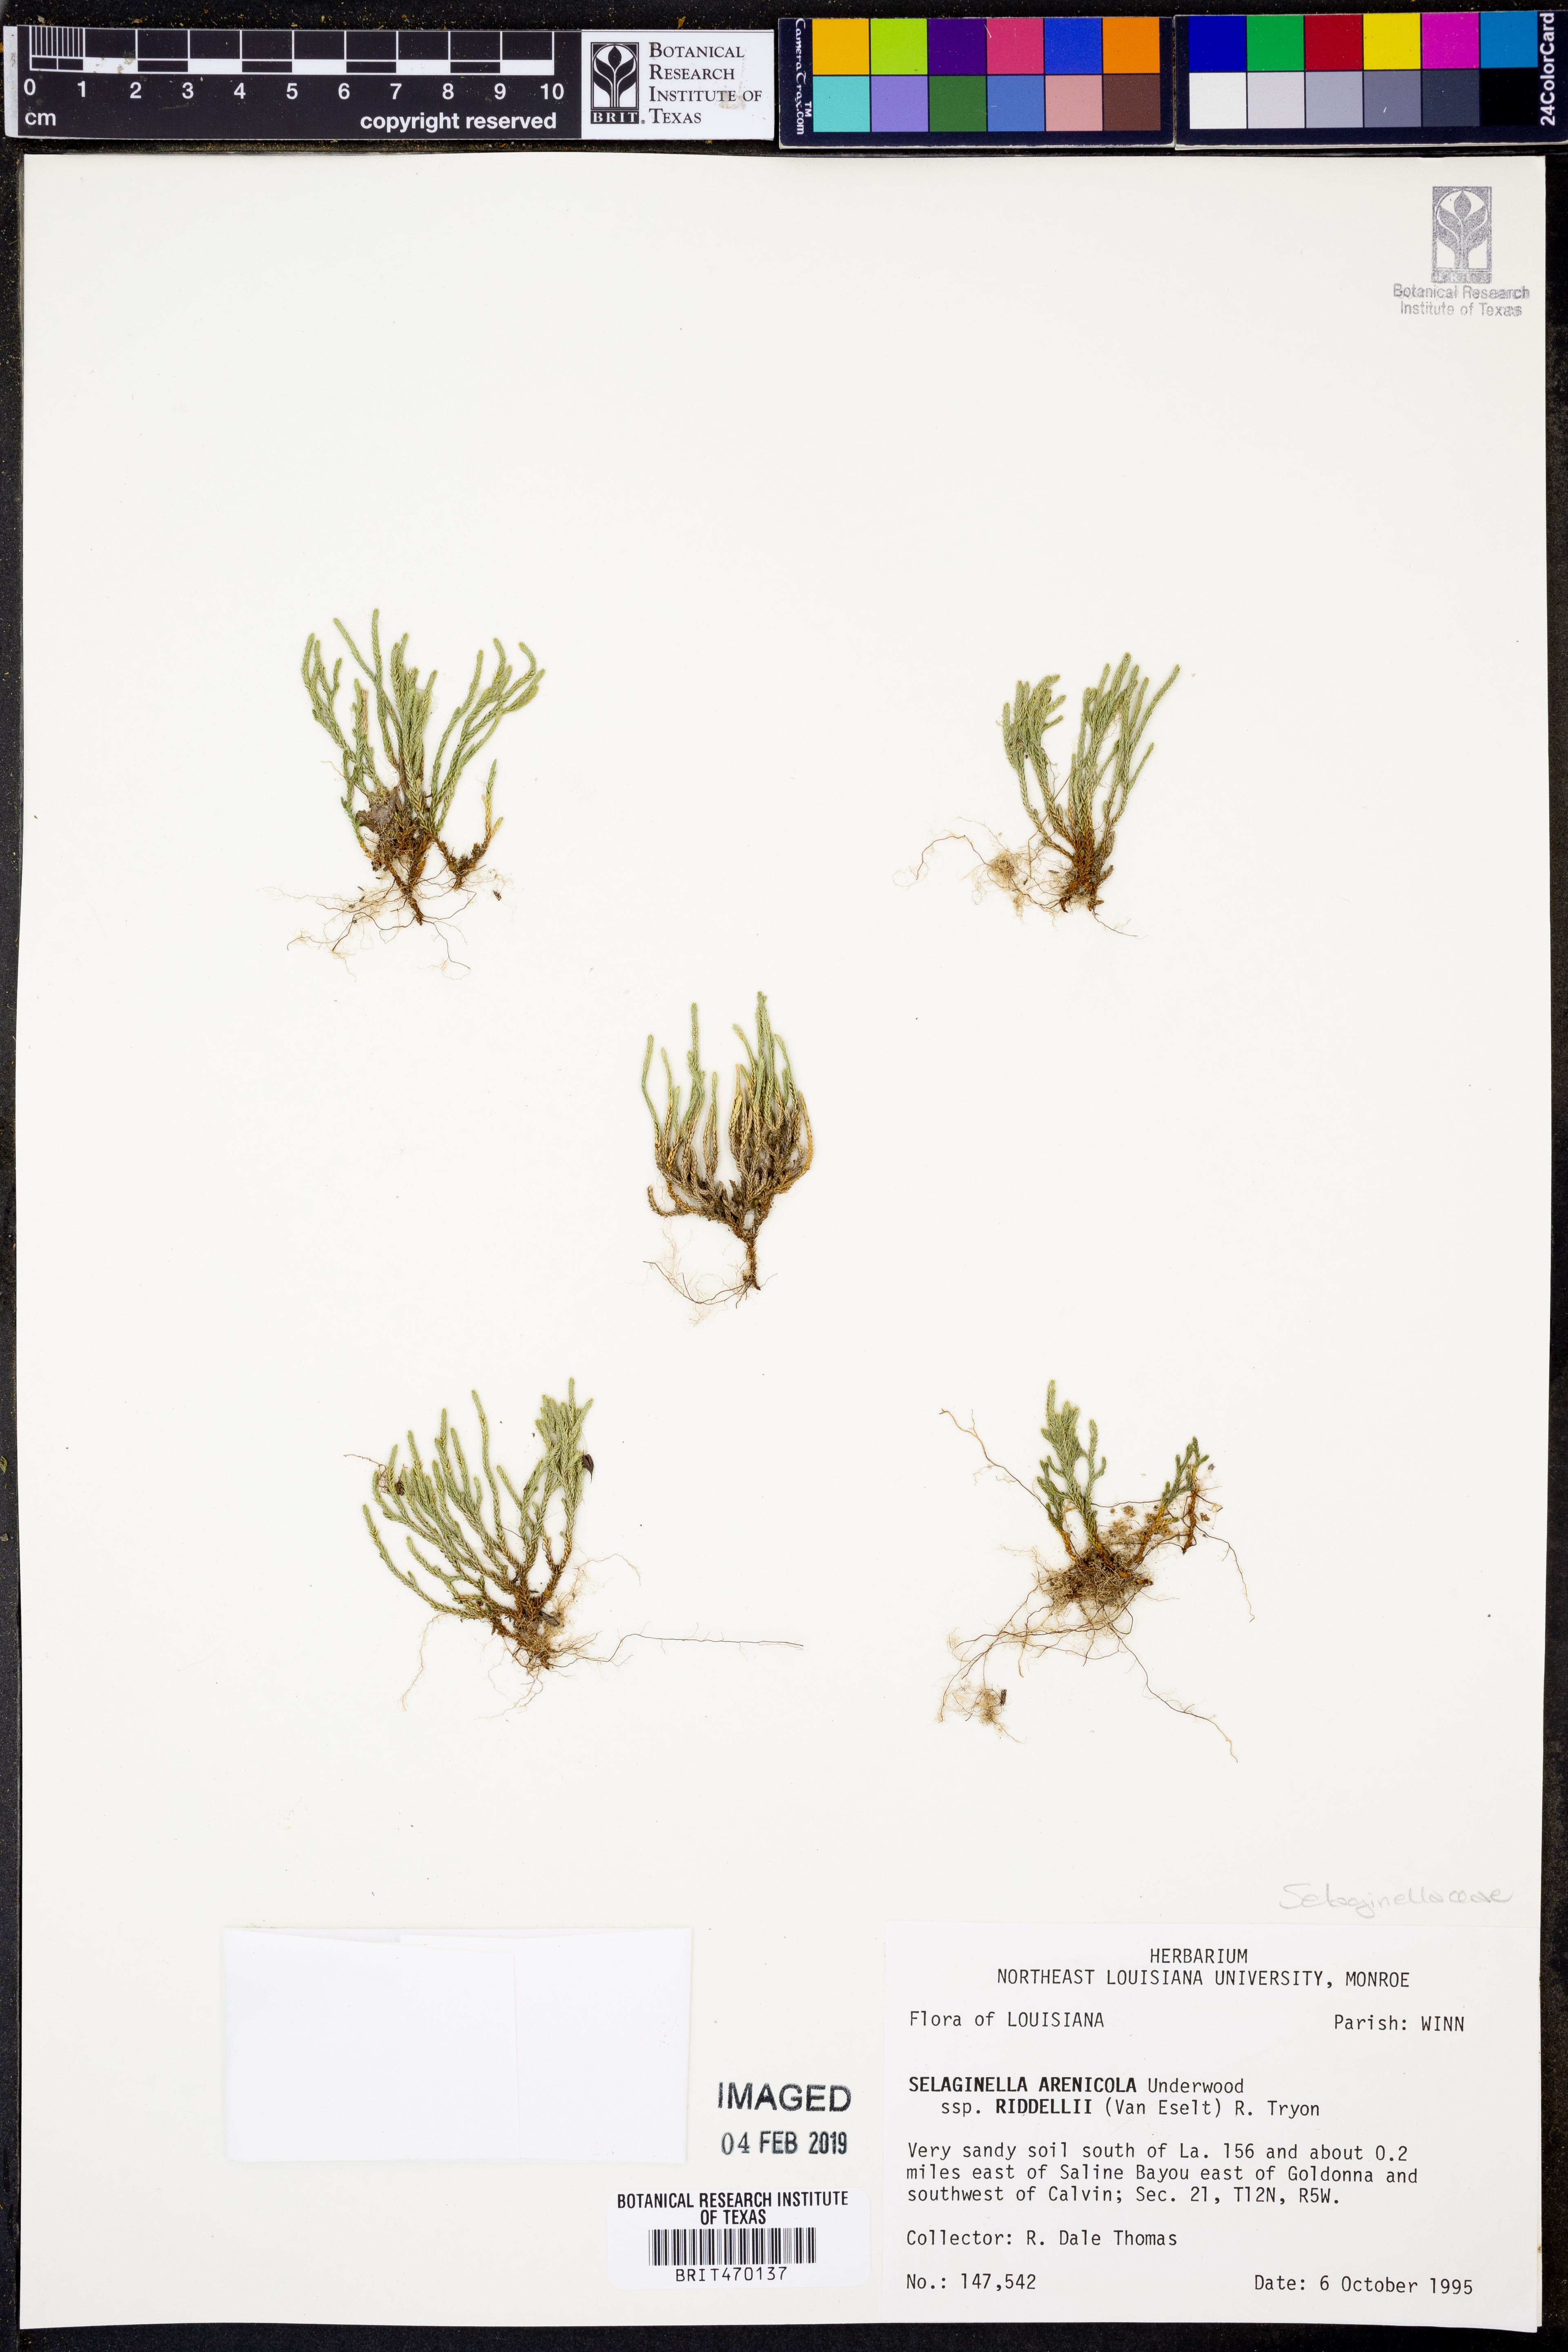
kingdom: Plantae
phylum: Tracheophyta
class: Lycopodiopsida
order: Selaginellales
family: Selaginellaceae
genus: Selaginella
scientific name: Selaginella corallina
